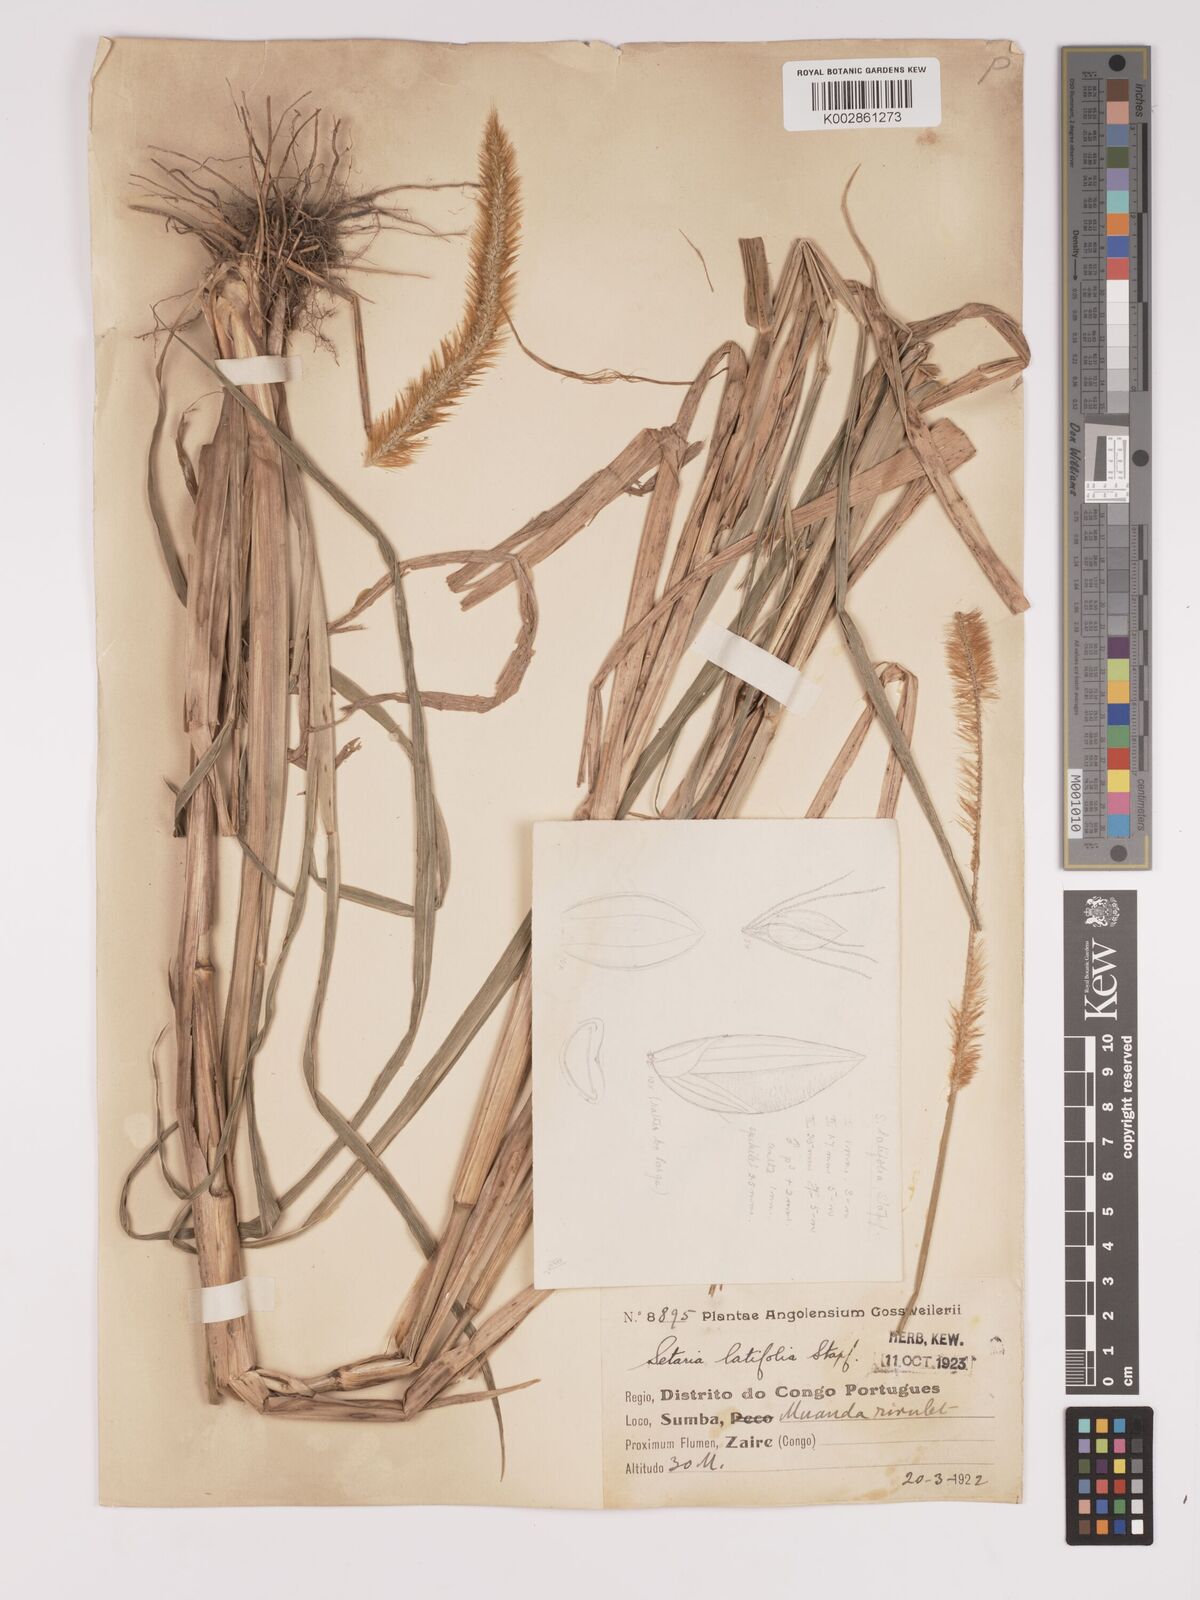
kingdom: Plantae
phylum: Tracheophyta
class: Liliopsida
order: Poales
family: Poaceae
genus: Setaria
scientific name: Setaria sphacelata
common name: African bristlegrass
